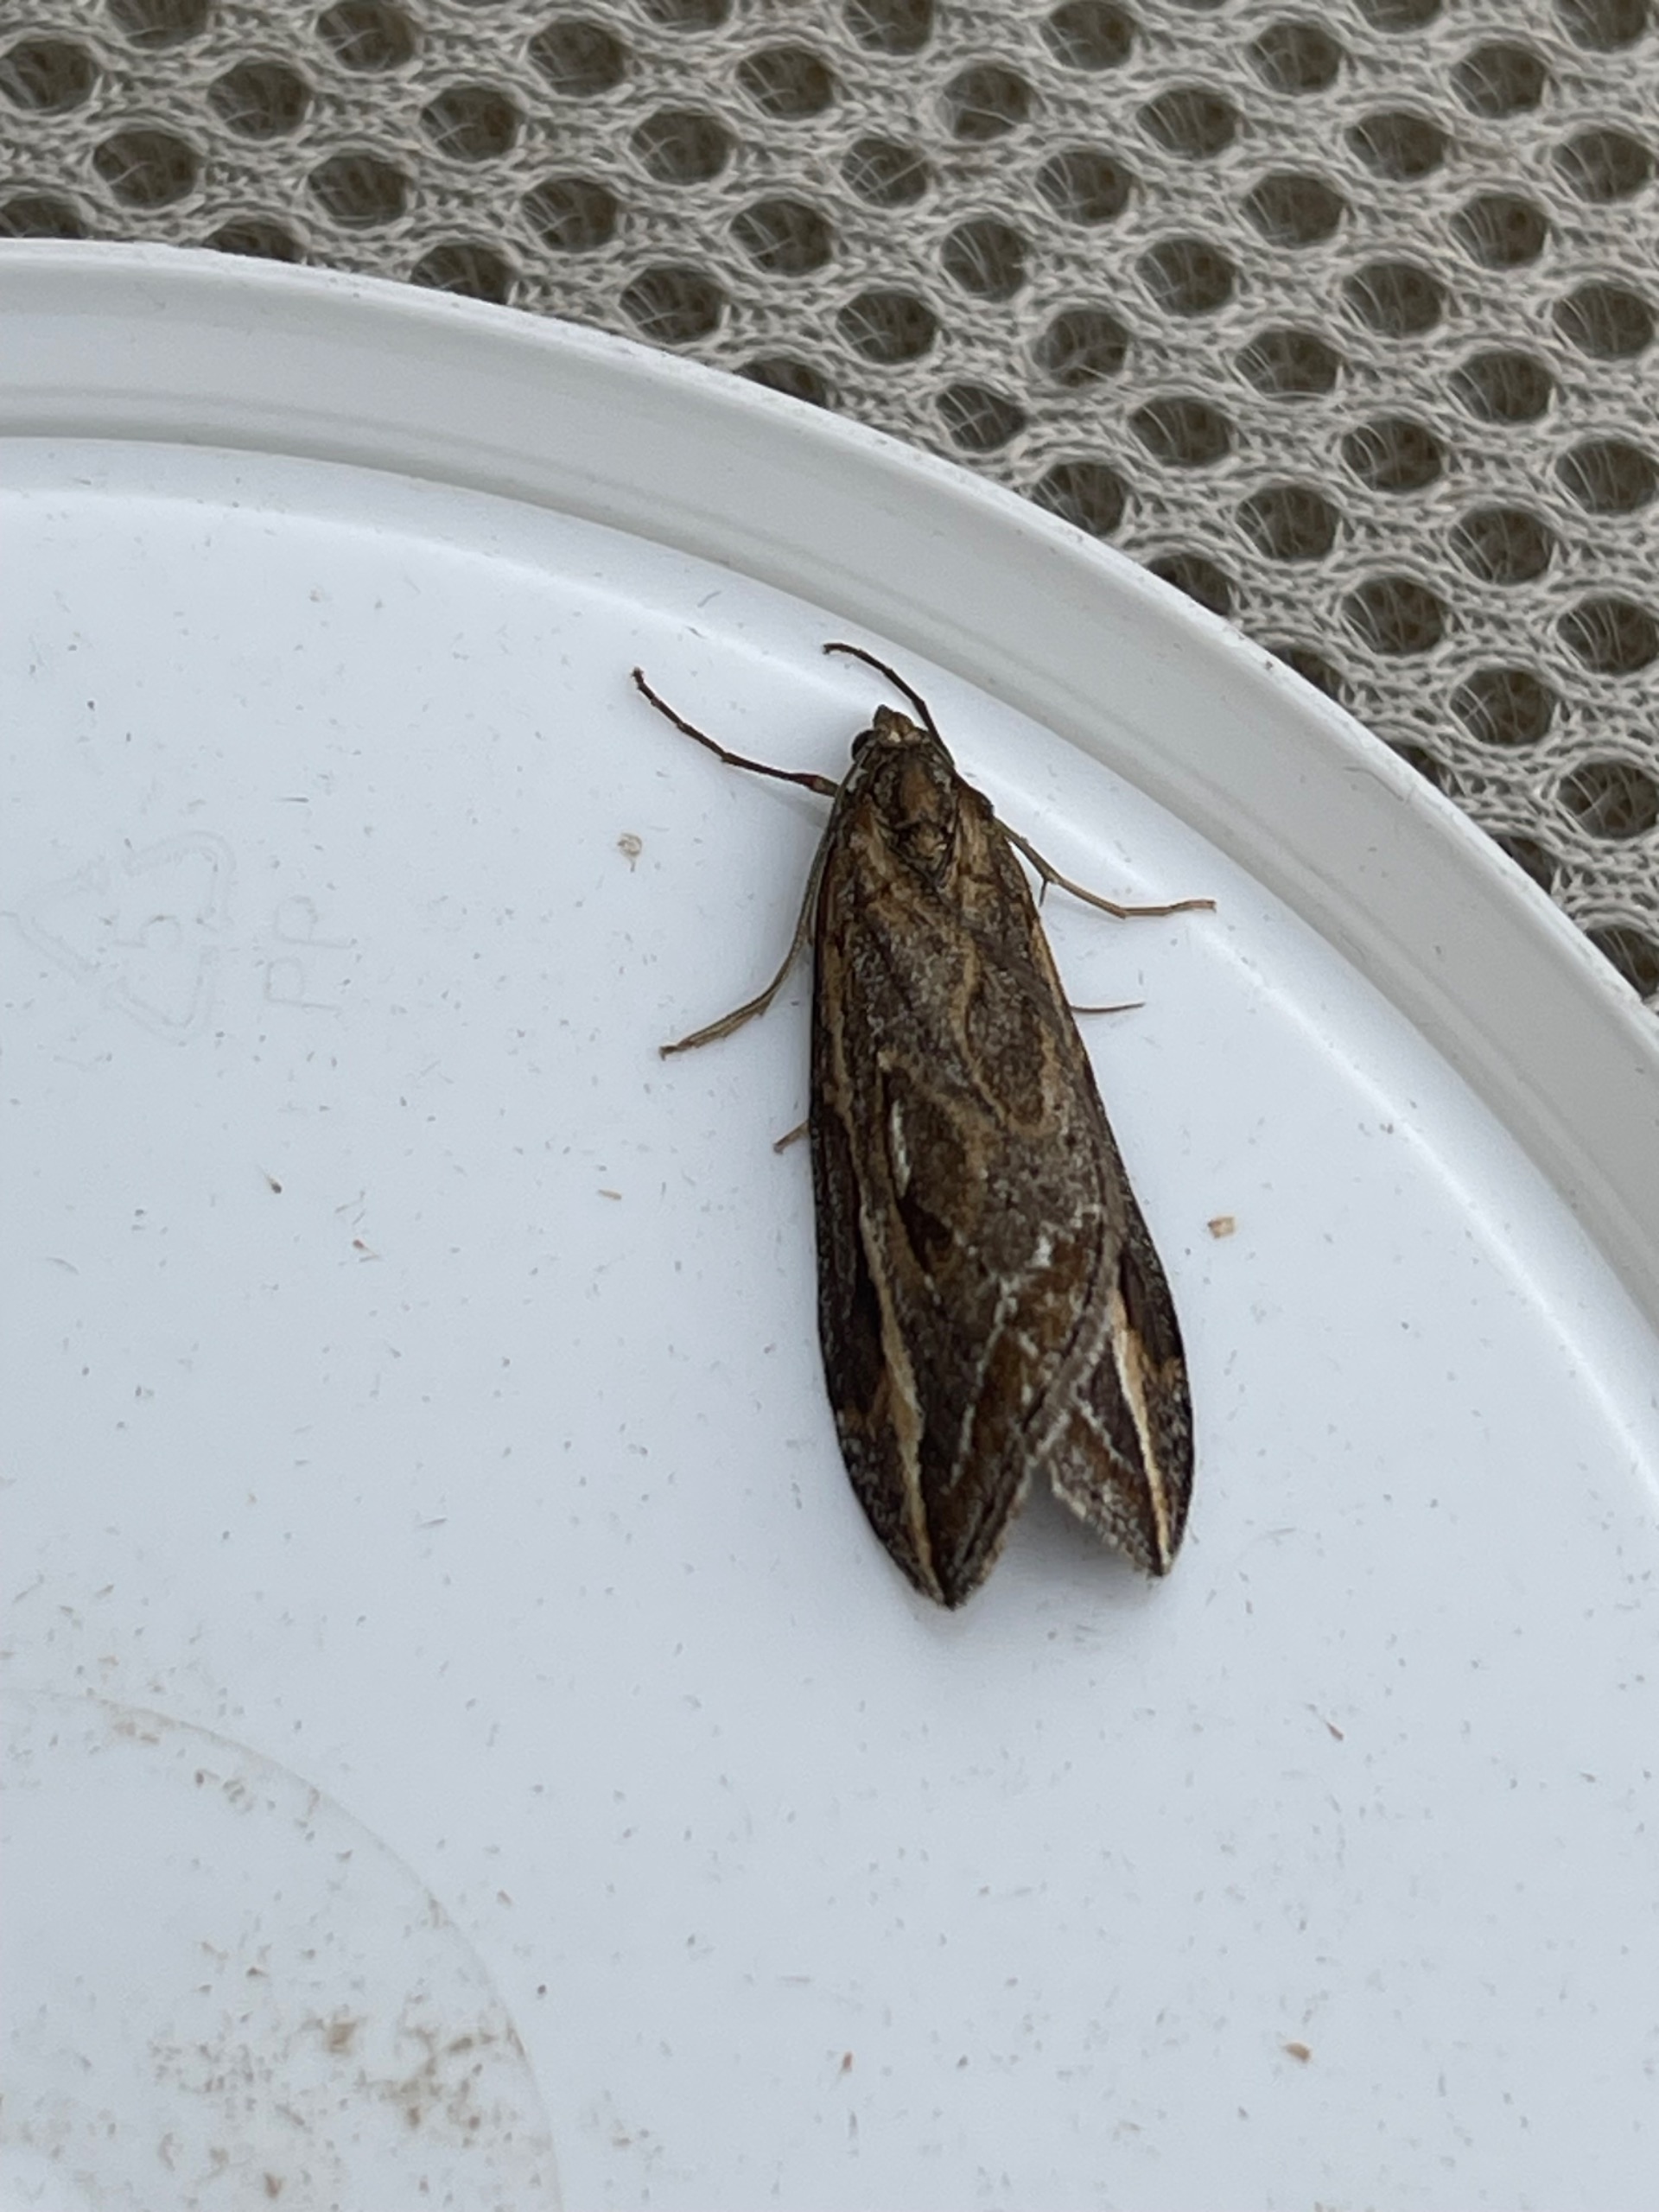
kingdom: Animalia
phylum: Arthropoda
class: Insecta
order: Lepidoptera
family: Geometridae
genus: Chesias
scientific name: Chesias legatella
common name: Stor gyvelmåler
